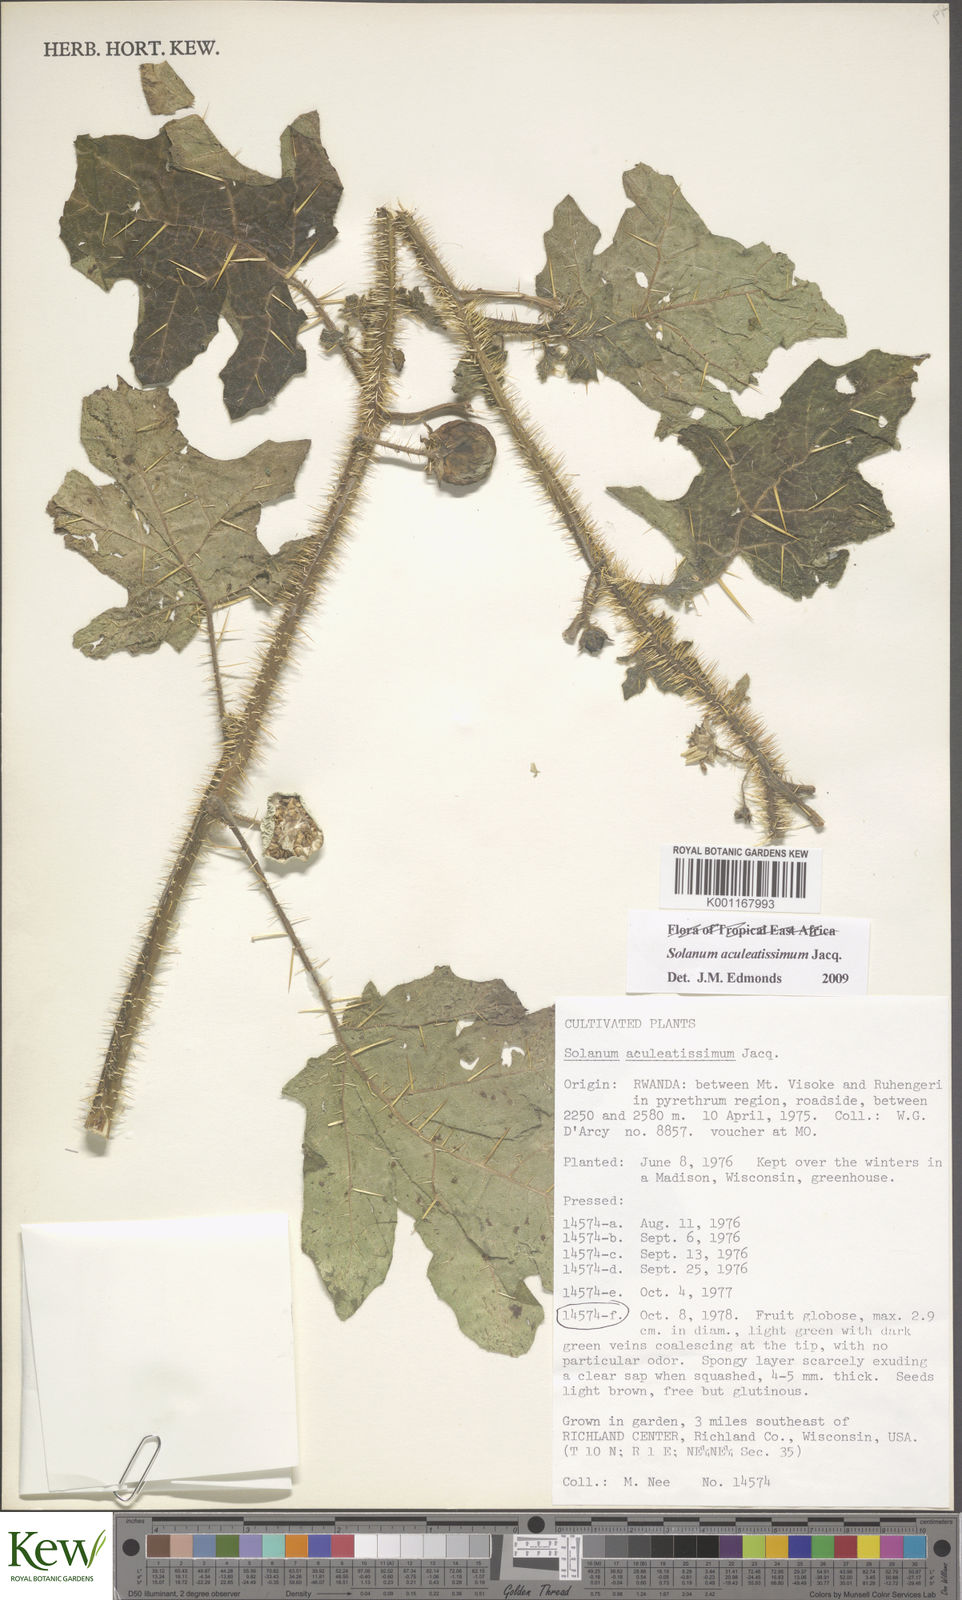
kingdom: Plantae
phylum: Tracheophyta
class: Magnoliopsida
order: Solanales
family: Solanaceae
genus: Solanum
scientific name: Solanum aculeatissimum
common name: Dutch eggplant
